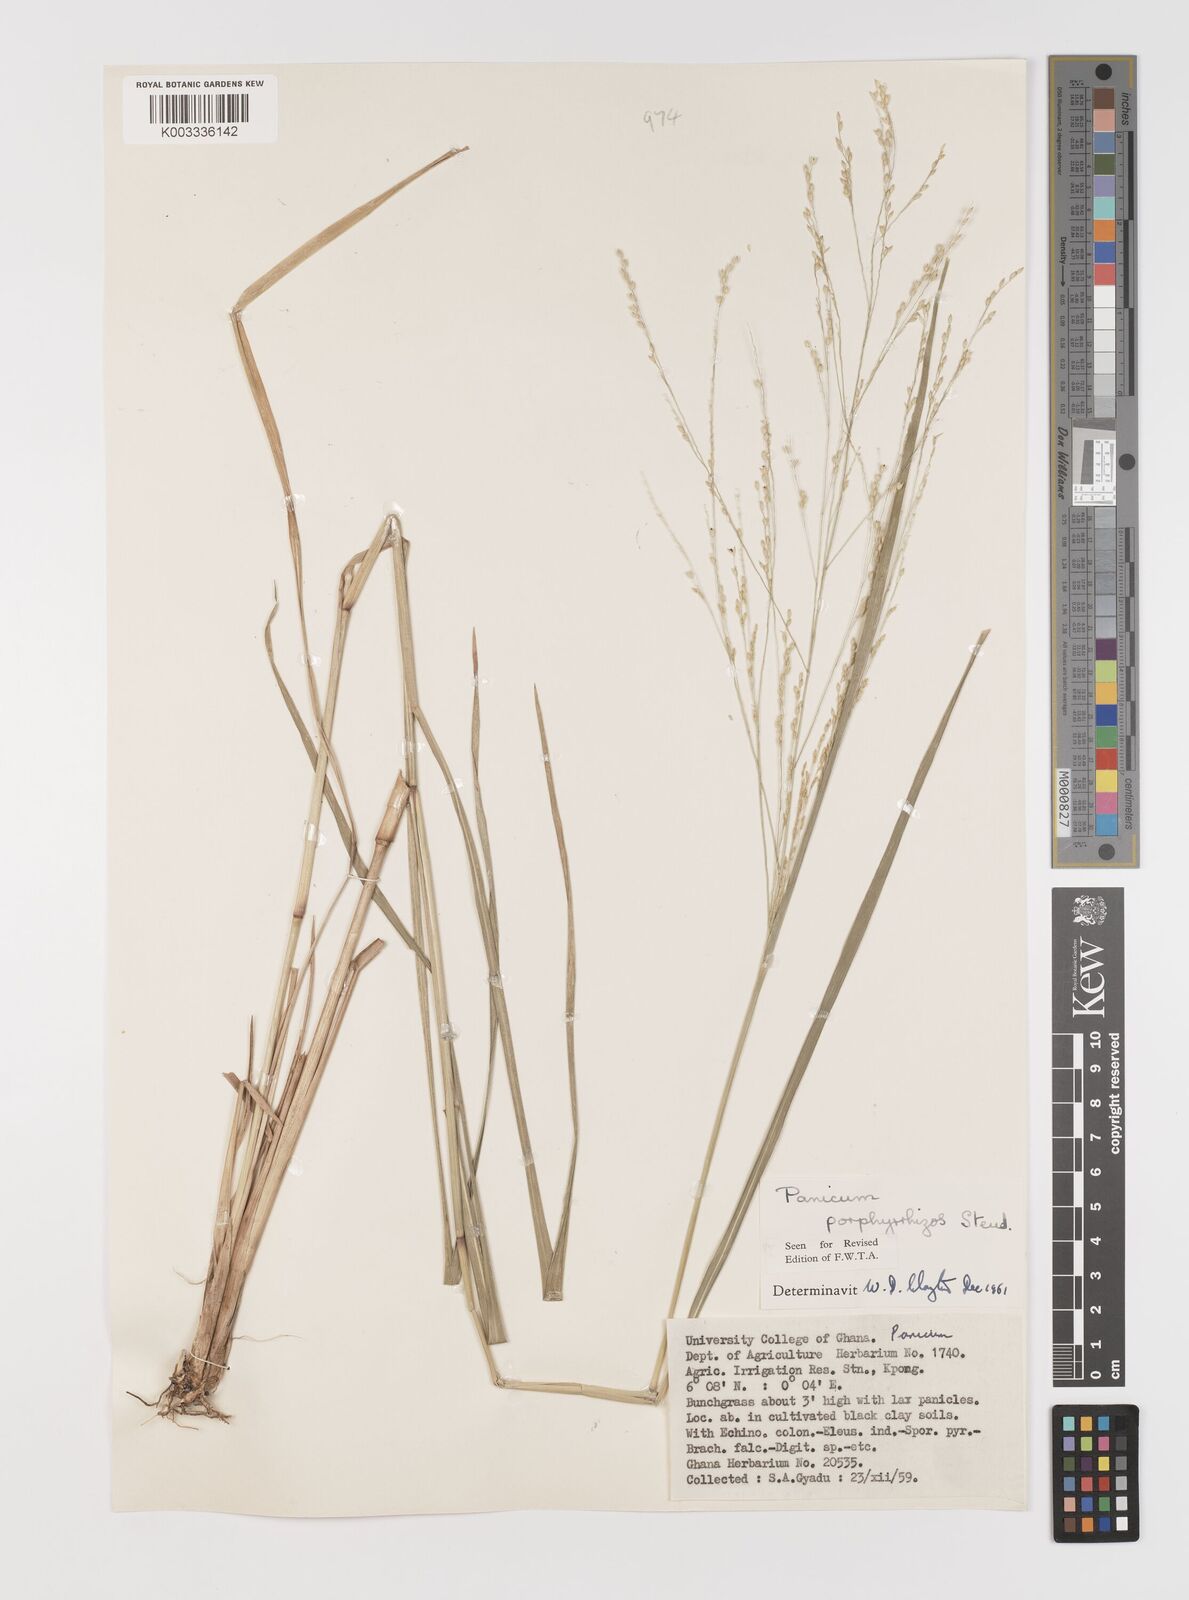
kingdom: Plantae
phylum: Tracheophyta
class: Liliopsida
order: Poales
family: Poaceae
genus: Panicum
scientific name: Panicum porphyrrhizos
